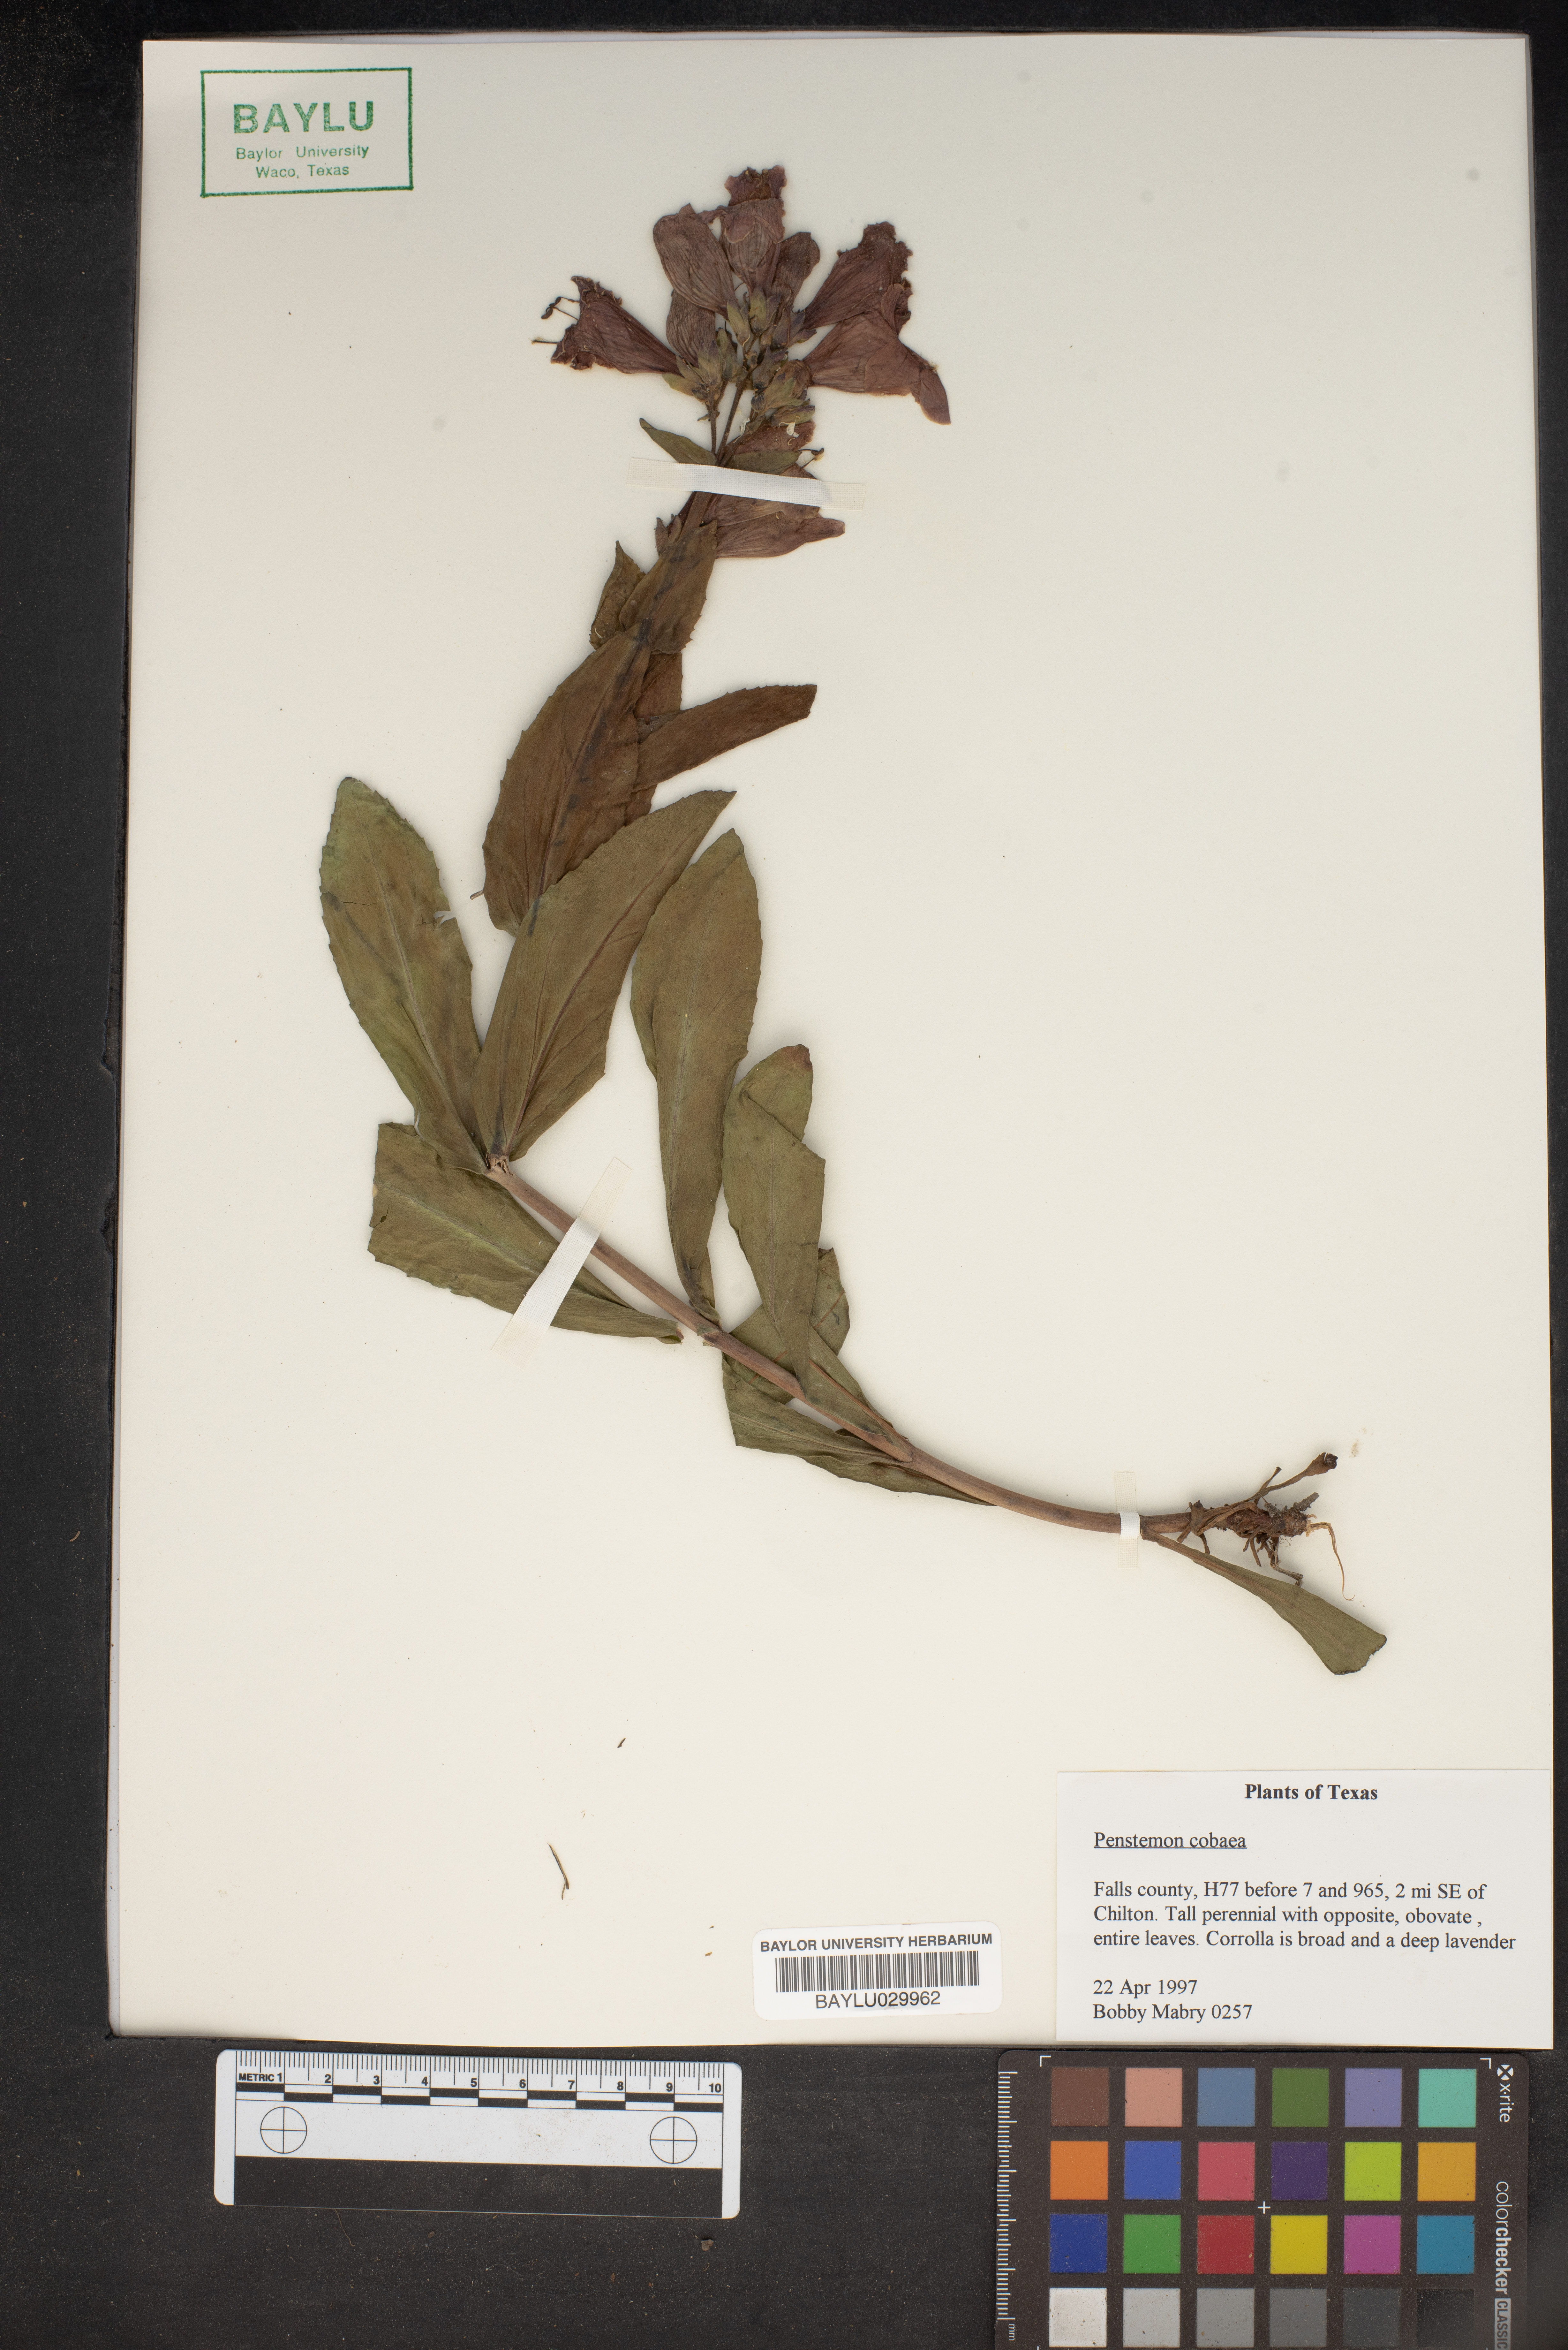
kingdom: Plantae
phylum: Tracheophyta
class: Magnoliopsida
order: Lamiales
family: Plantaginaceae
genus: Penstemon
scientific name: Penstemon cobaea
